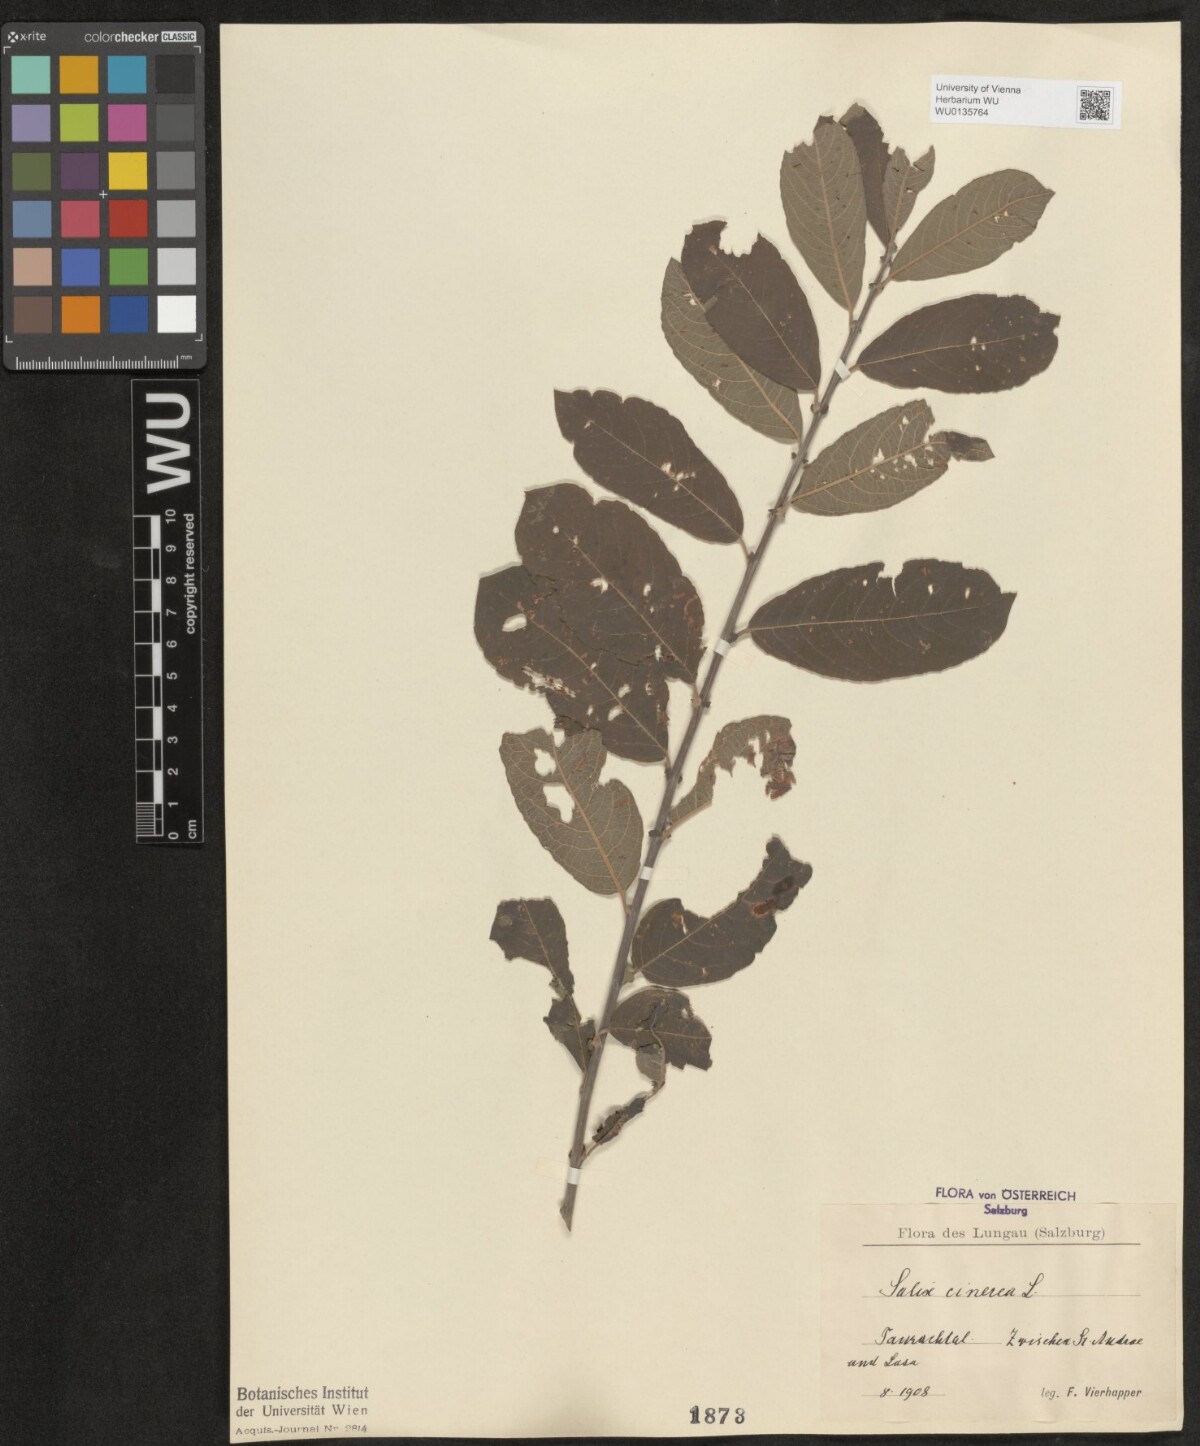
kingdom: Plantae
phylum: Tracheophyta
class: Magnoliopsida
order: Malpighiales
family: Salicaceae
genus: Salix
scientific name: Salix cinerea
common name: Common sallow
